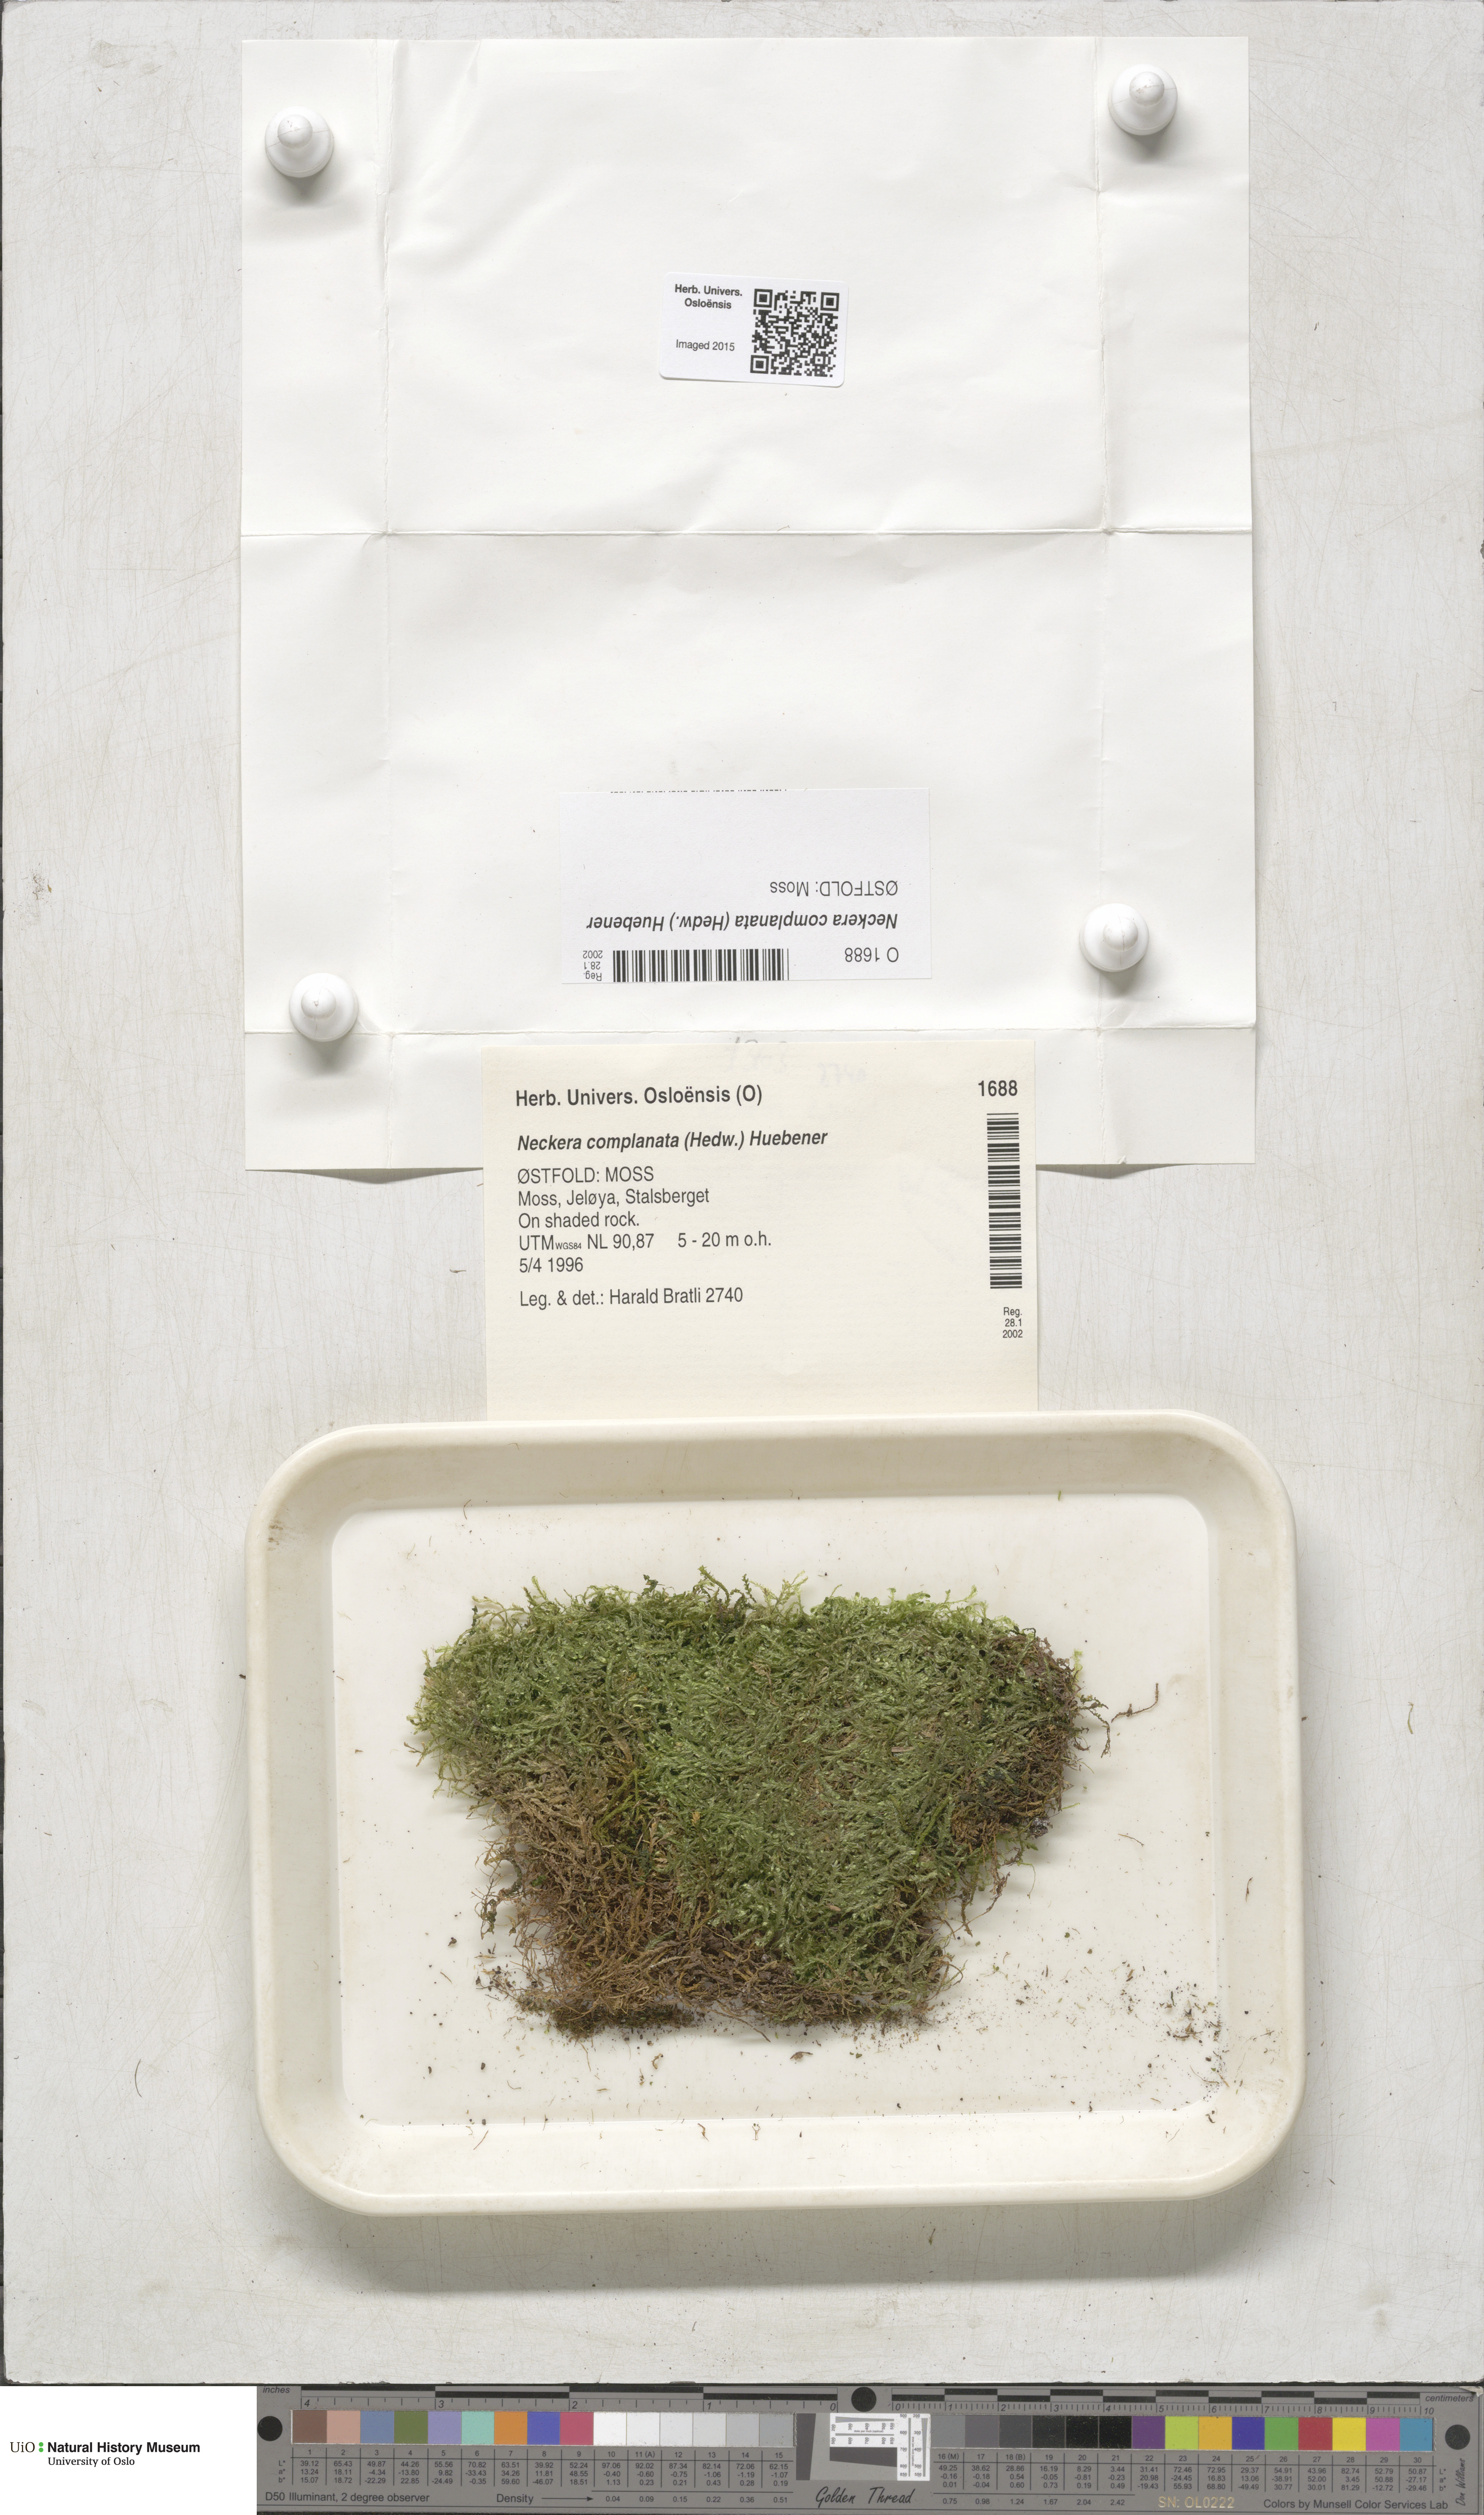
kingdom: Plantae
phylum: Bryophyta
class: Bryopsida
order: Hypnales
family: Neckeraceae
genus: Alleniella
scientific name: Alleniella complanata
